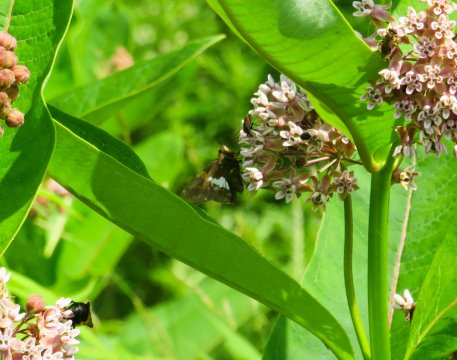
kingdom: Animalia
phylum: Arthropoda
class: Insecta
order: Lepidoptera
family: Hesperiidae
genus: Epargyreus
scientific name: Epargyreus clarus
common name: Silver-spotted Skipper
